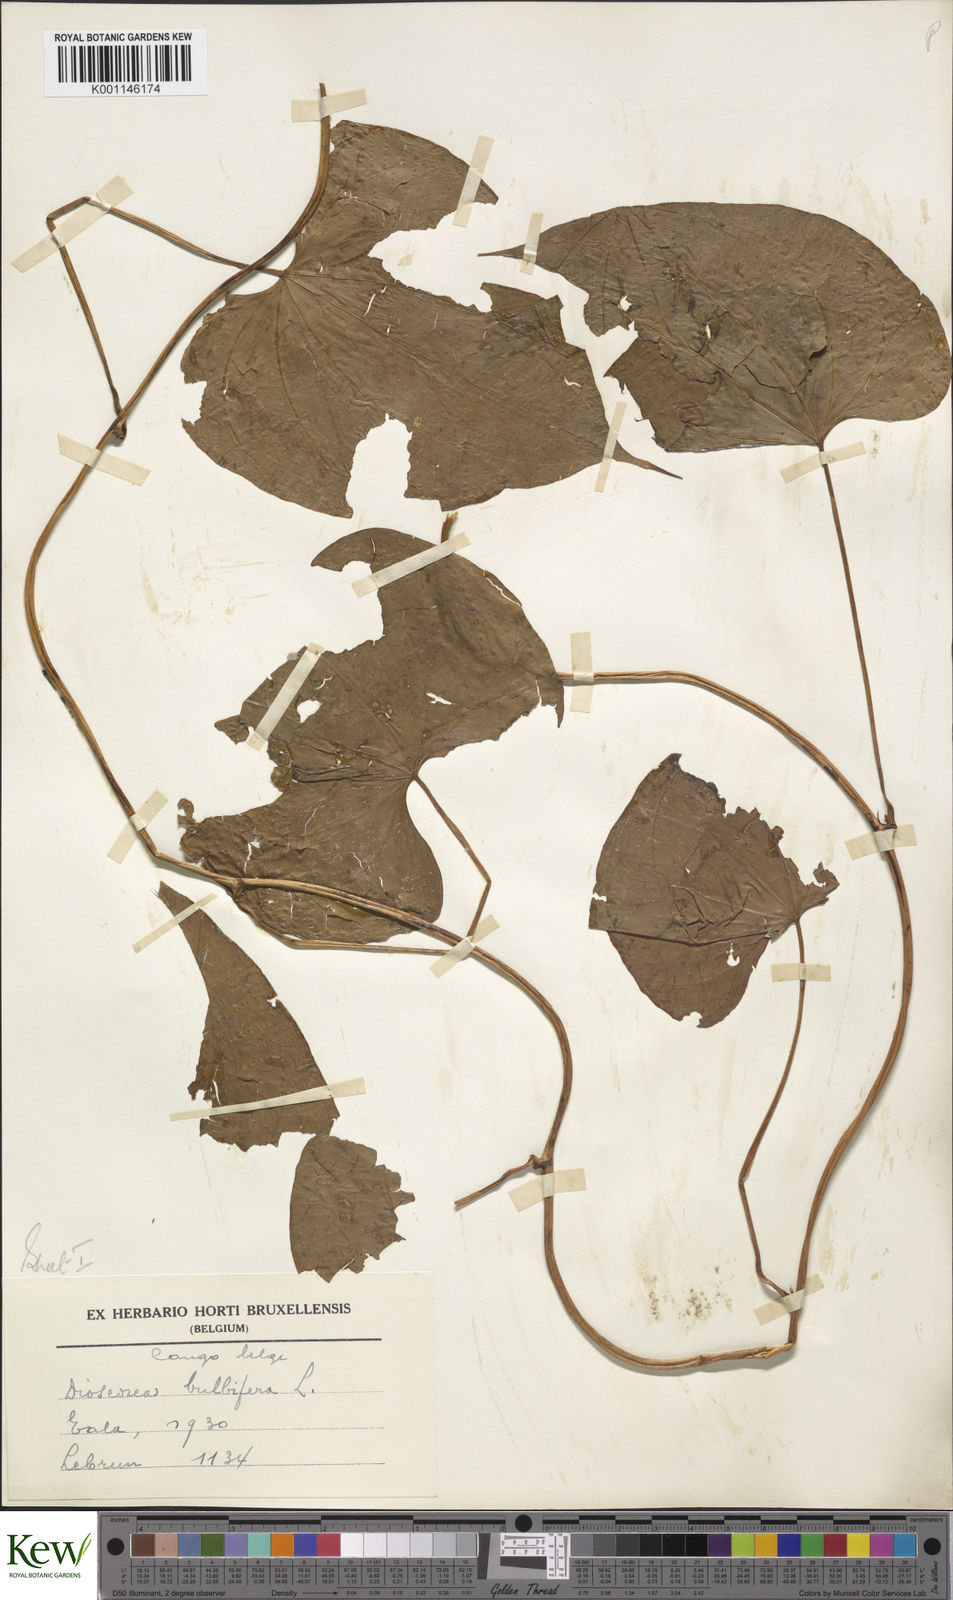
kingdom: Plantae
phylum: Tracheophyta
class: Liliopsida
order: Dioscoreales
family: Dioscoreaceae
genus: Dioscorea
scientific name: Dioscorea bulbifera
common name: Air yam
